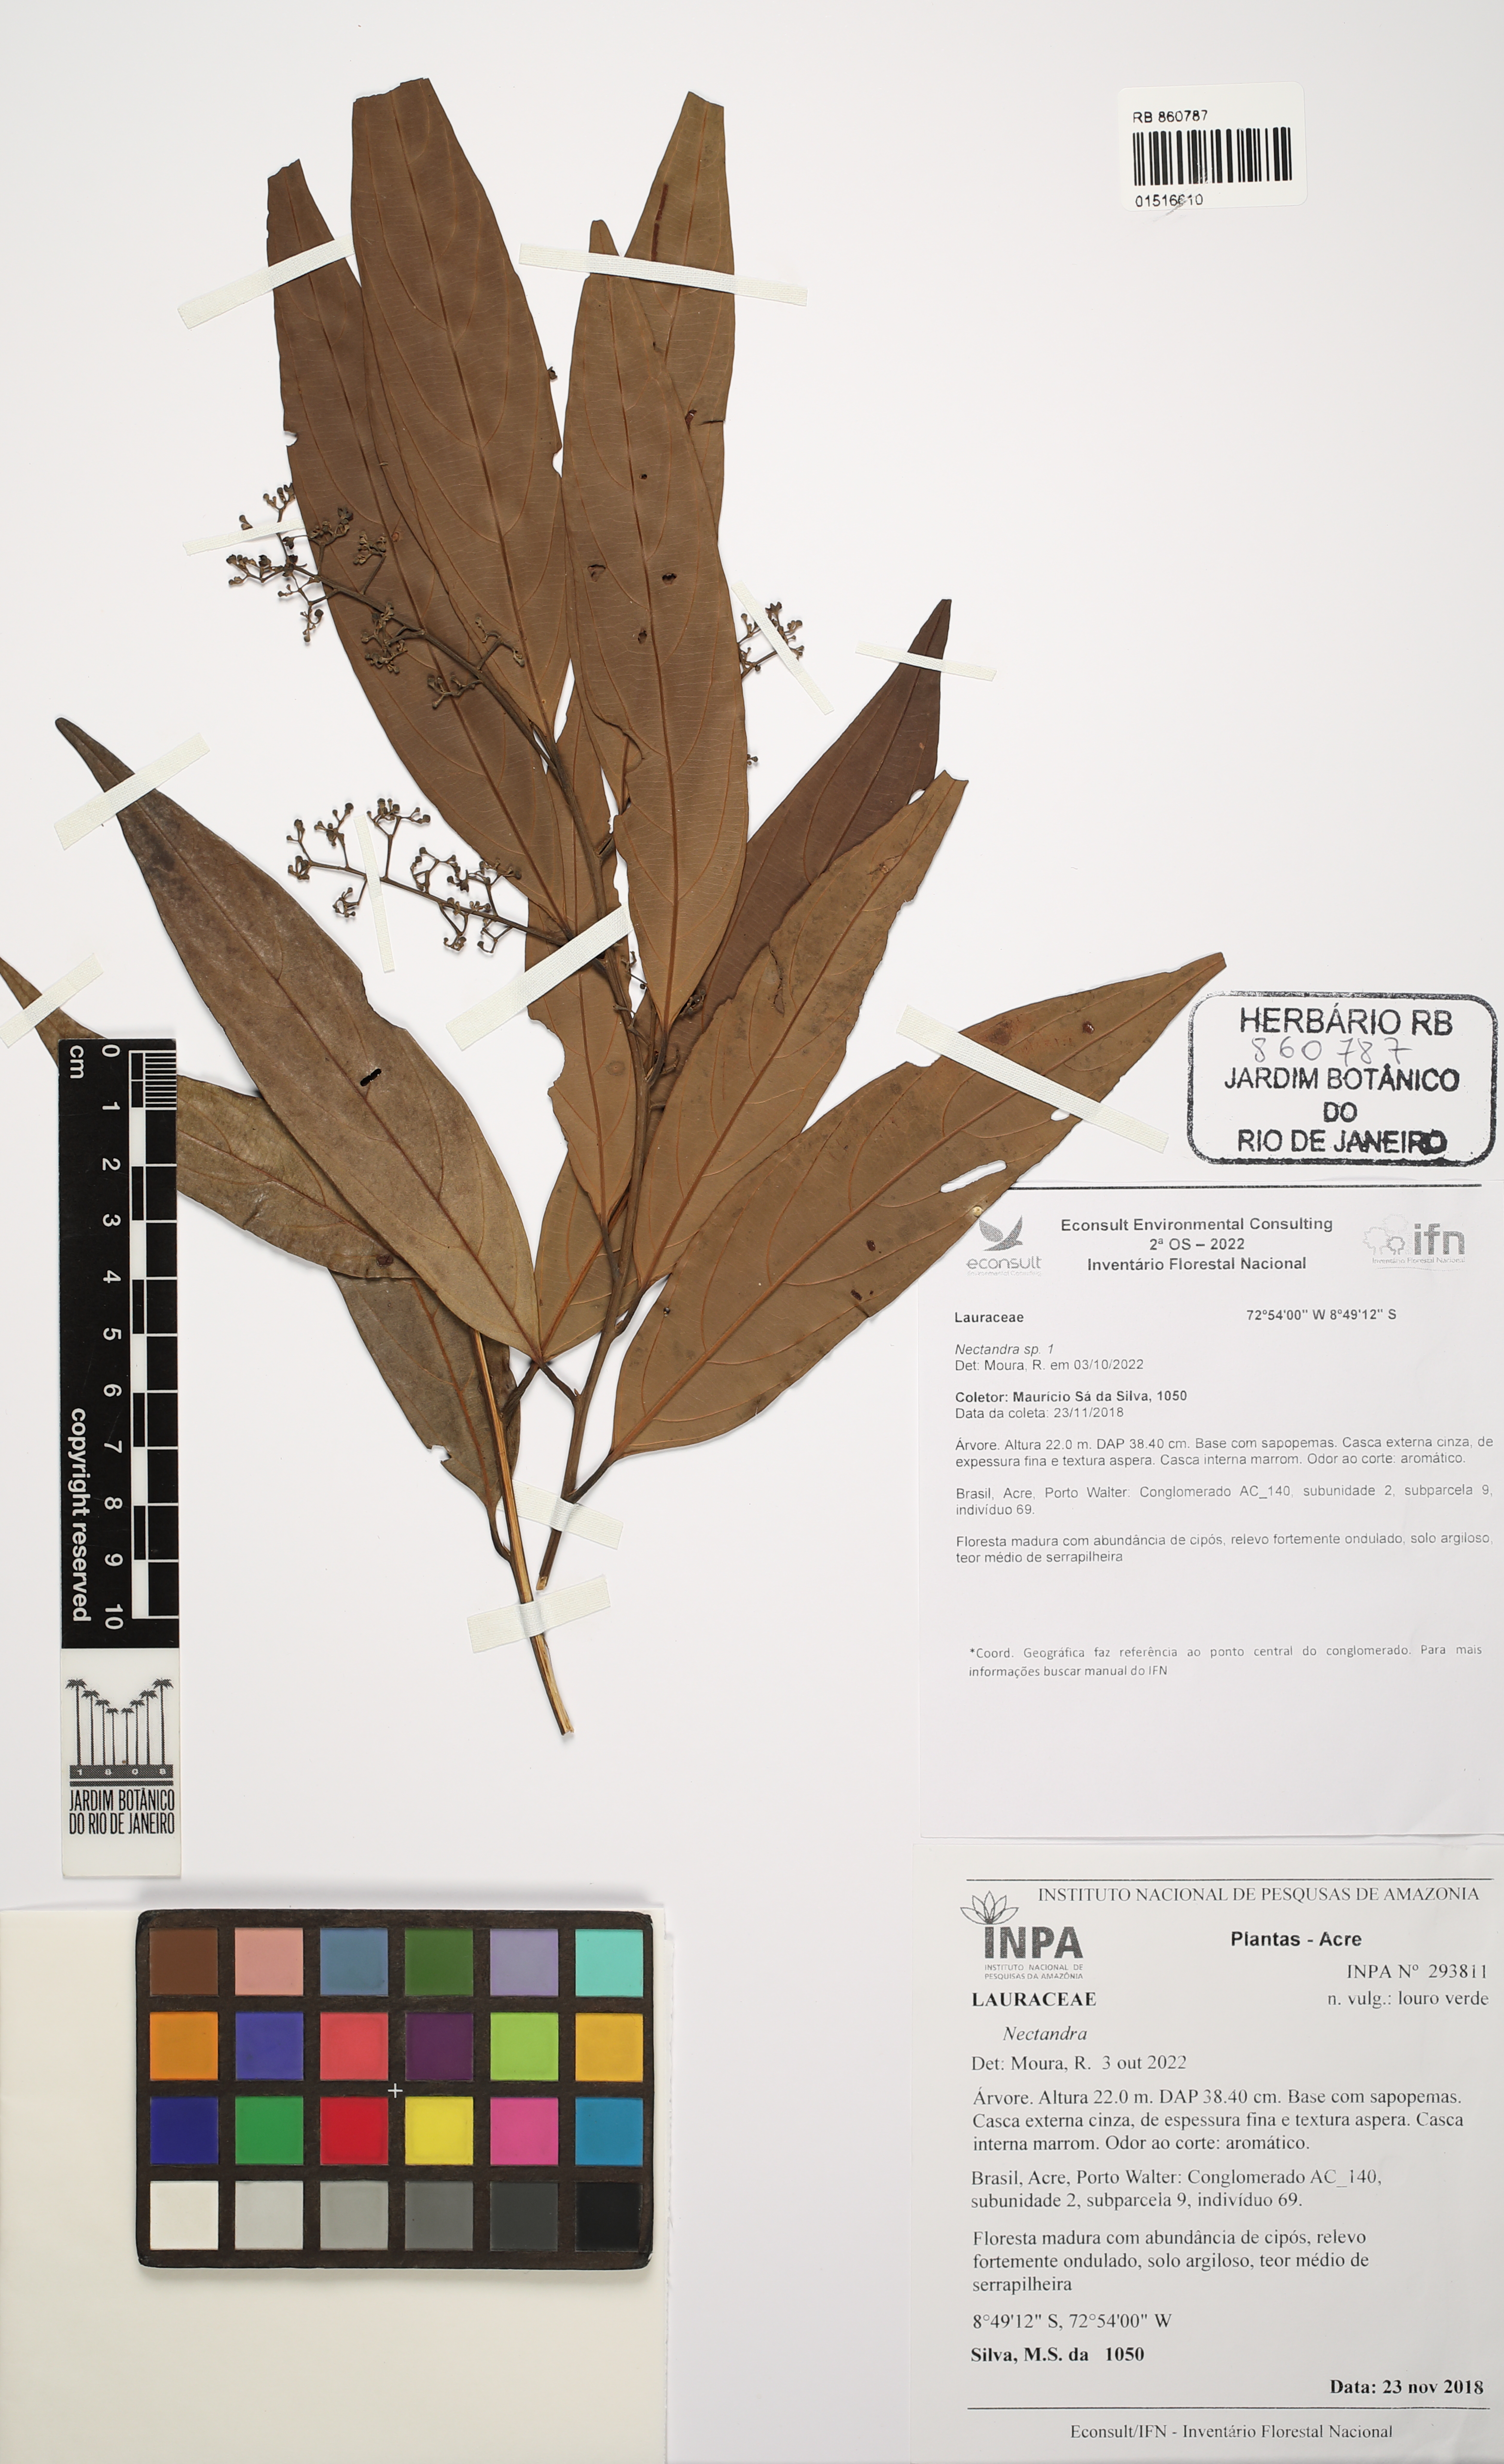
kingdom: Plantae
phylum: Tracheophyta
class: Magnoliopsida
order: Laurales
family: Lauraceae
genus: Nectandra
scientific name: Nectandra
